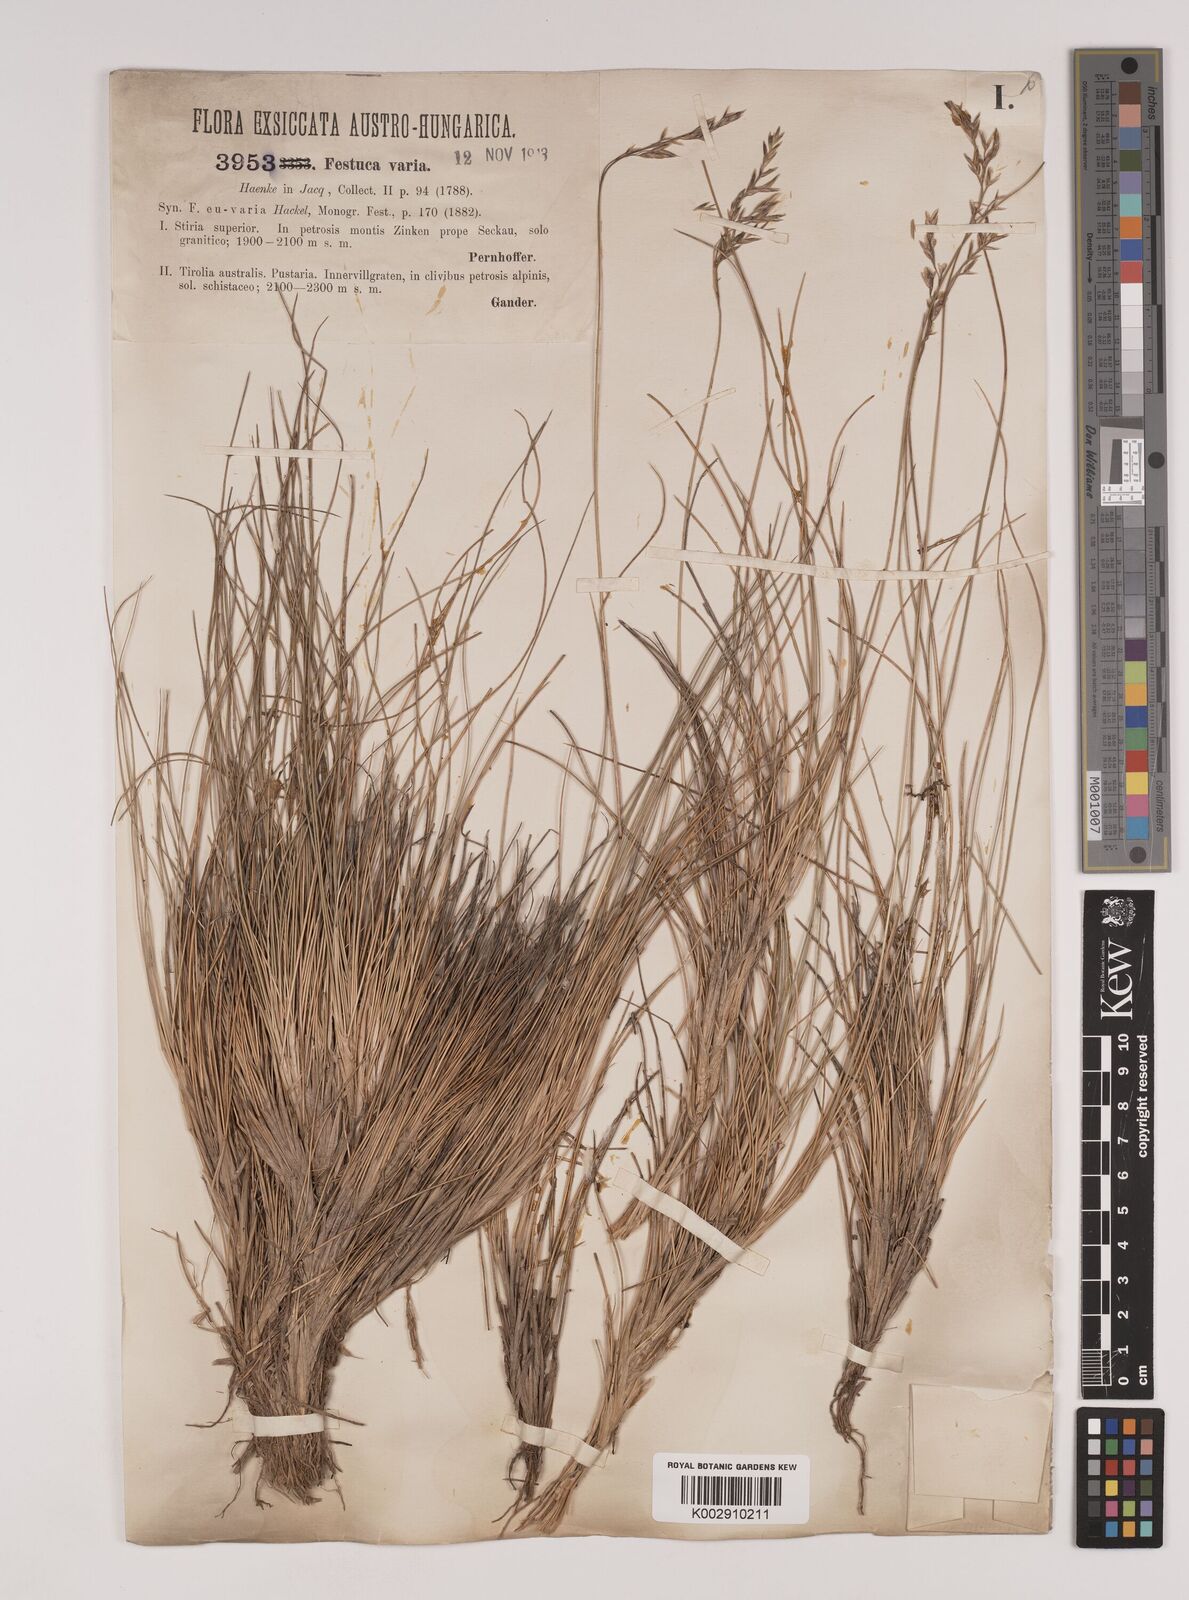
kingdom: Plantae
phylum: Tracheophyta
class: Liliopsida
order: Poales
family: Poaceae
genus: Festuca
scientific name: Festuca varia
